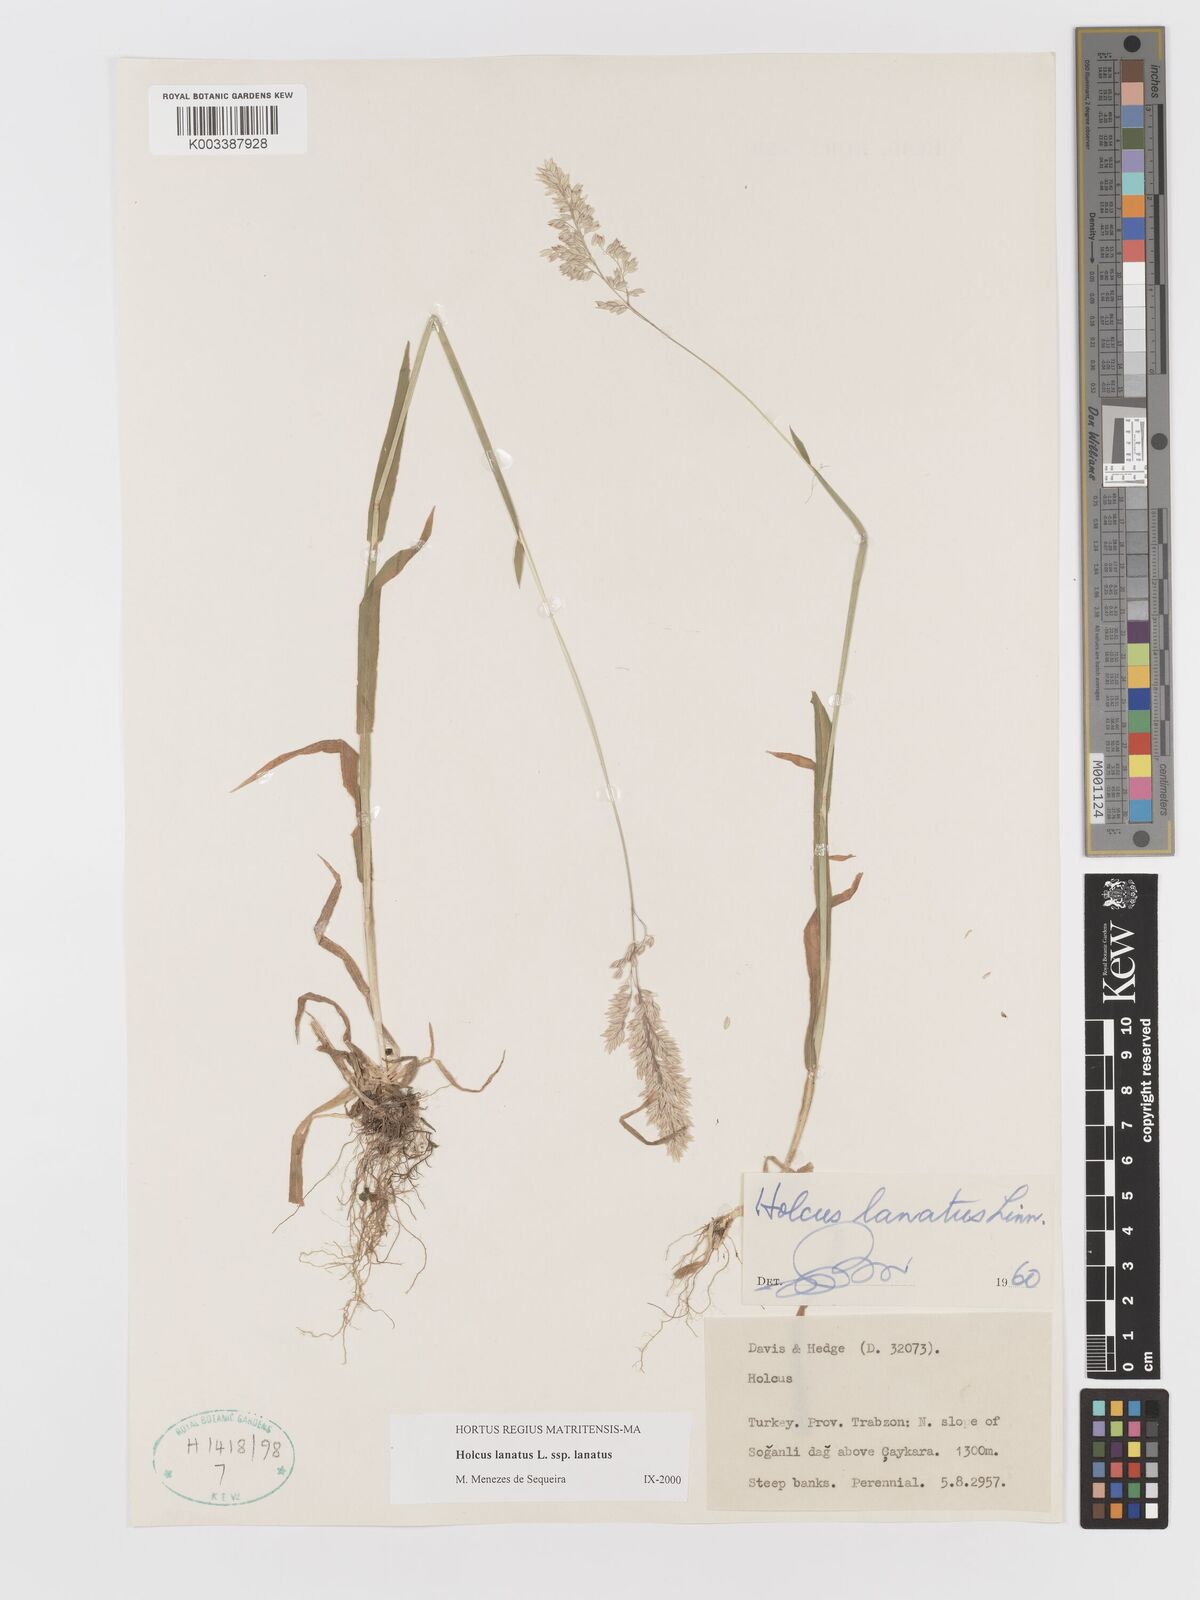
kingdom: Plantae
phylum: Tracheophyta
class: Liliopsida
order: Poales
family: Poaceae
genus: Holcus
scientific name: Holcus lanatus
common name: Yorkshire-fog
